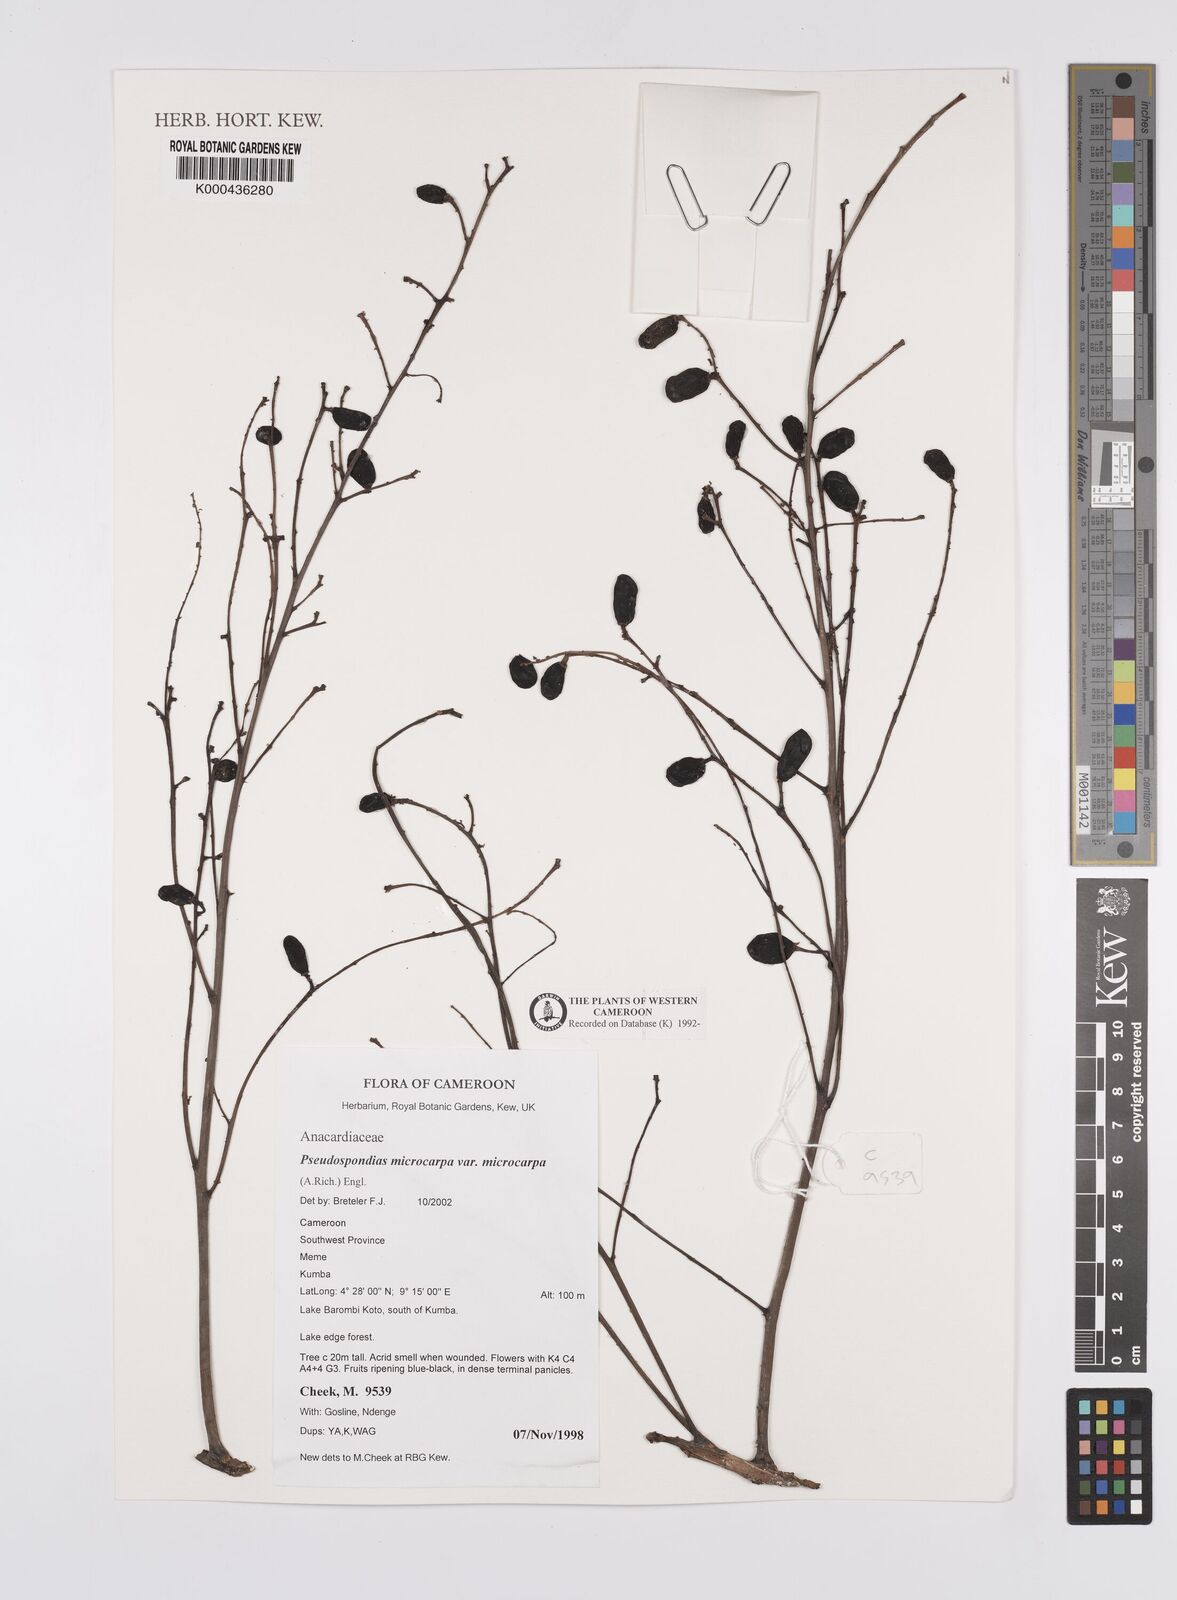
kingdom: Plantae
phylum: Tracheophyta
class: Magnoliopsida
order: Sapindales
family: Anacardiaceae
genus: Pseudospondias
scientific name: Pseudospondias microcarpa
